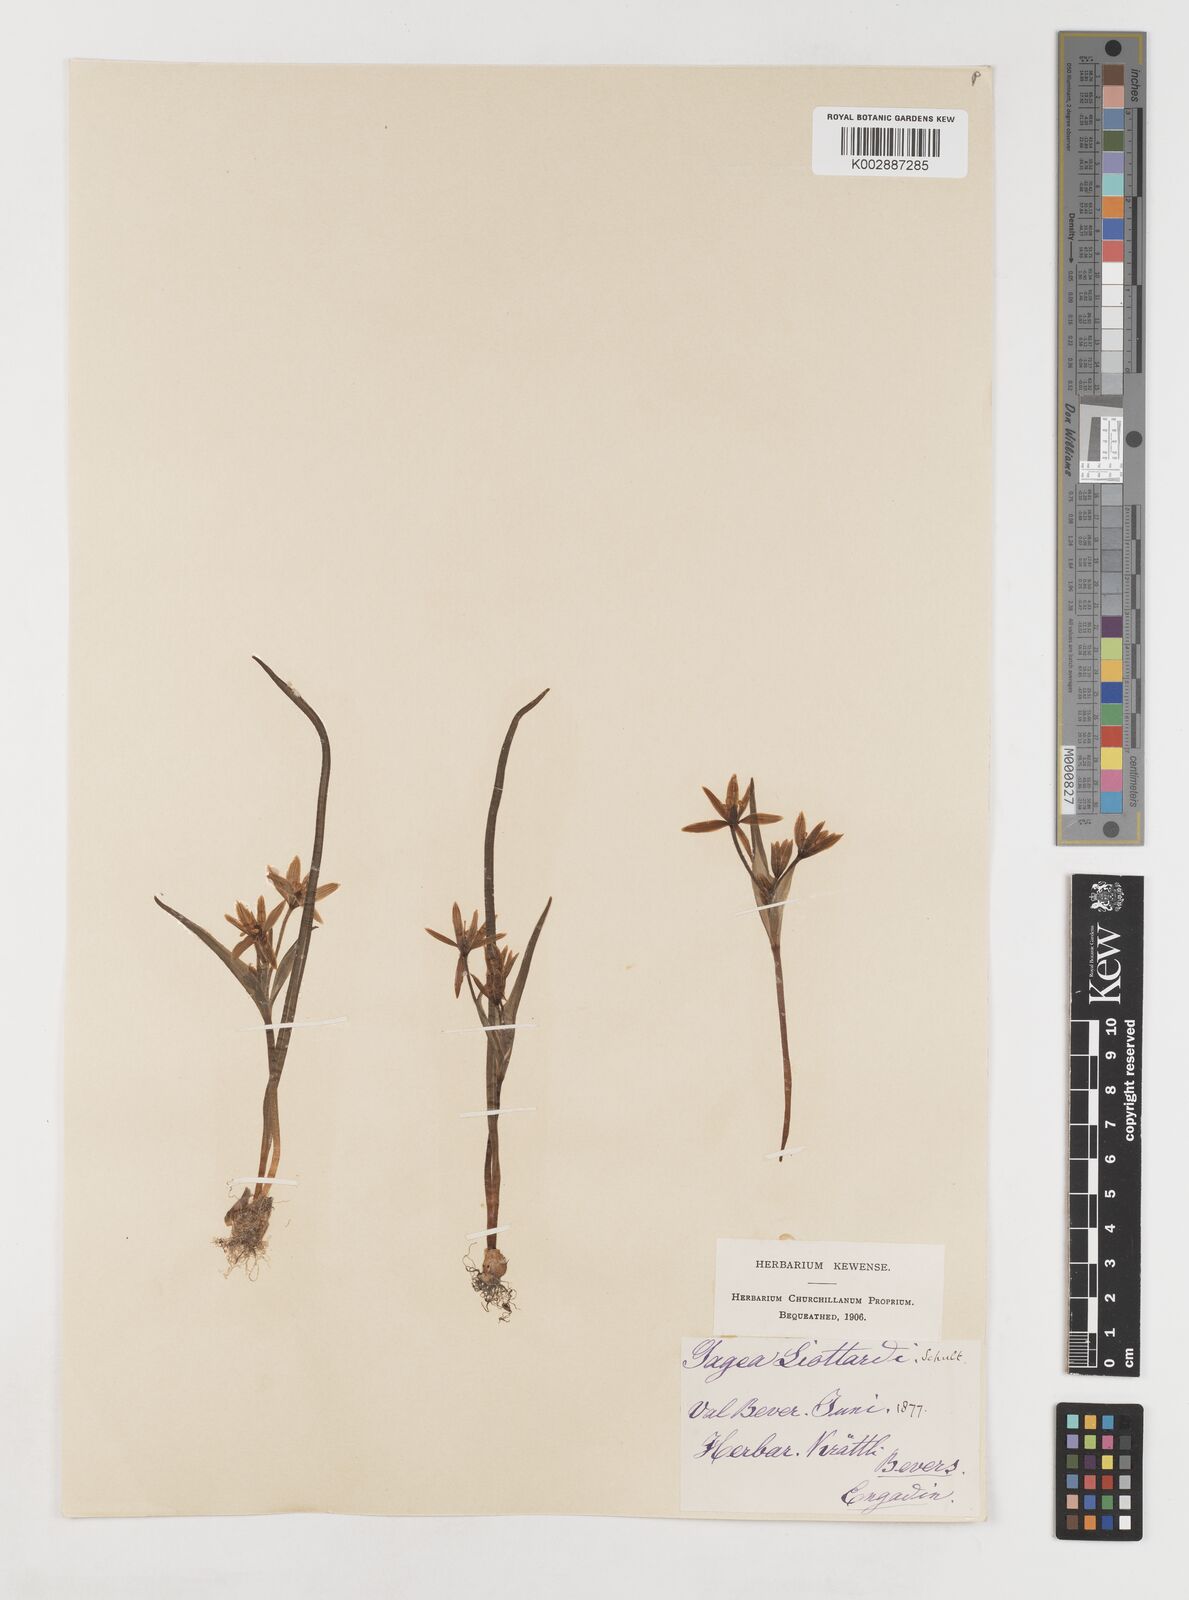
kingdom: Plantae
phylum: Tracheophyta
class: Liliopsida
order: Liliales
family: Liliaceae
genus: Gagea
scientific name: Gagea bohemica
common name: Early star-of-bethlehem
